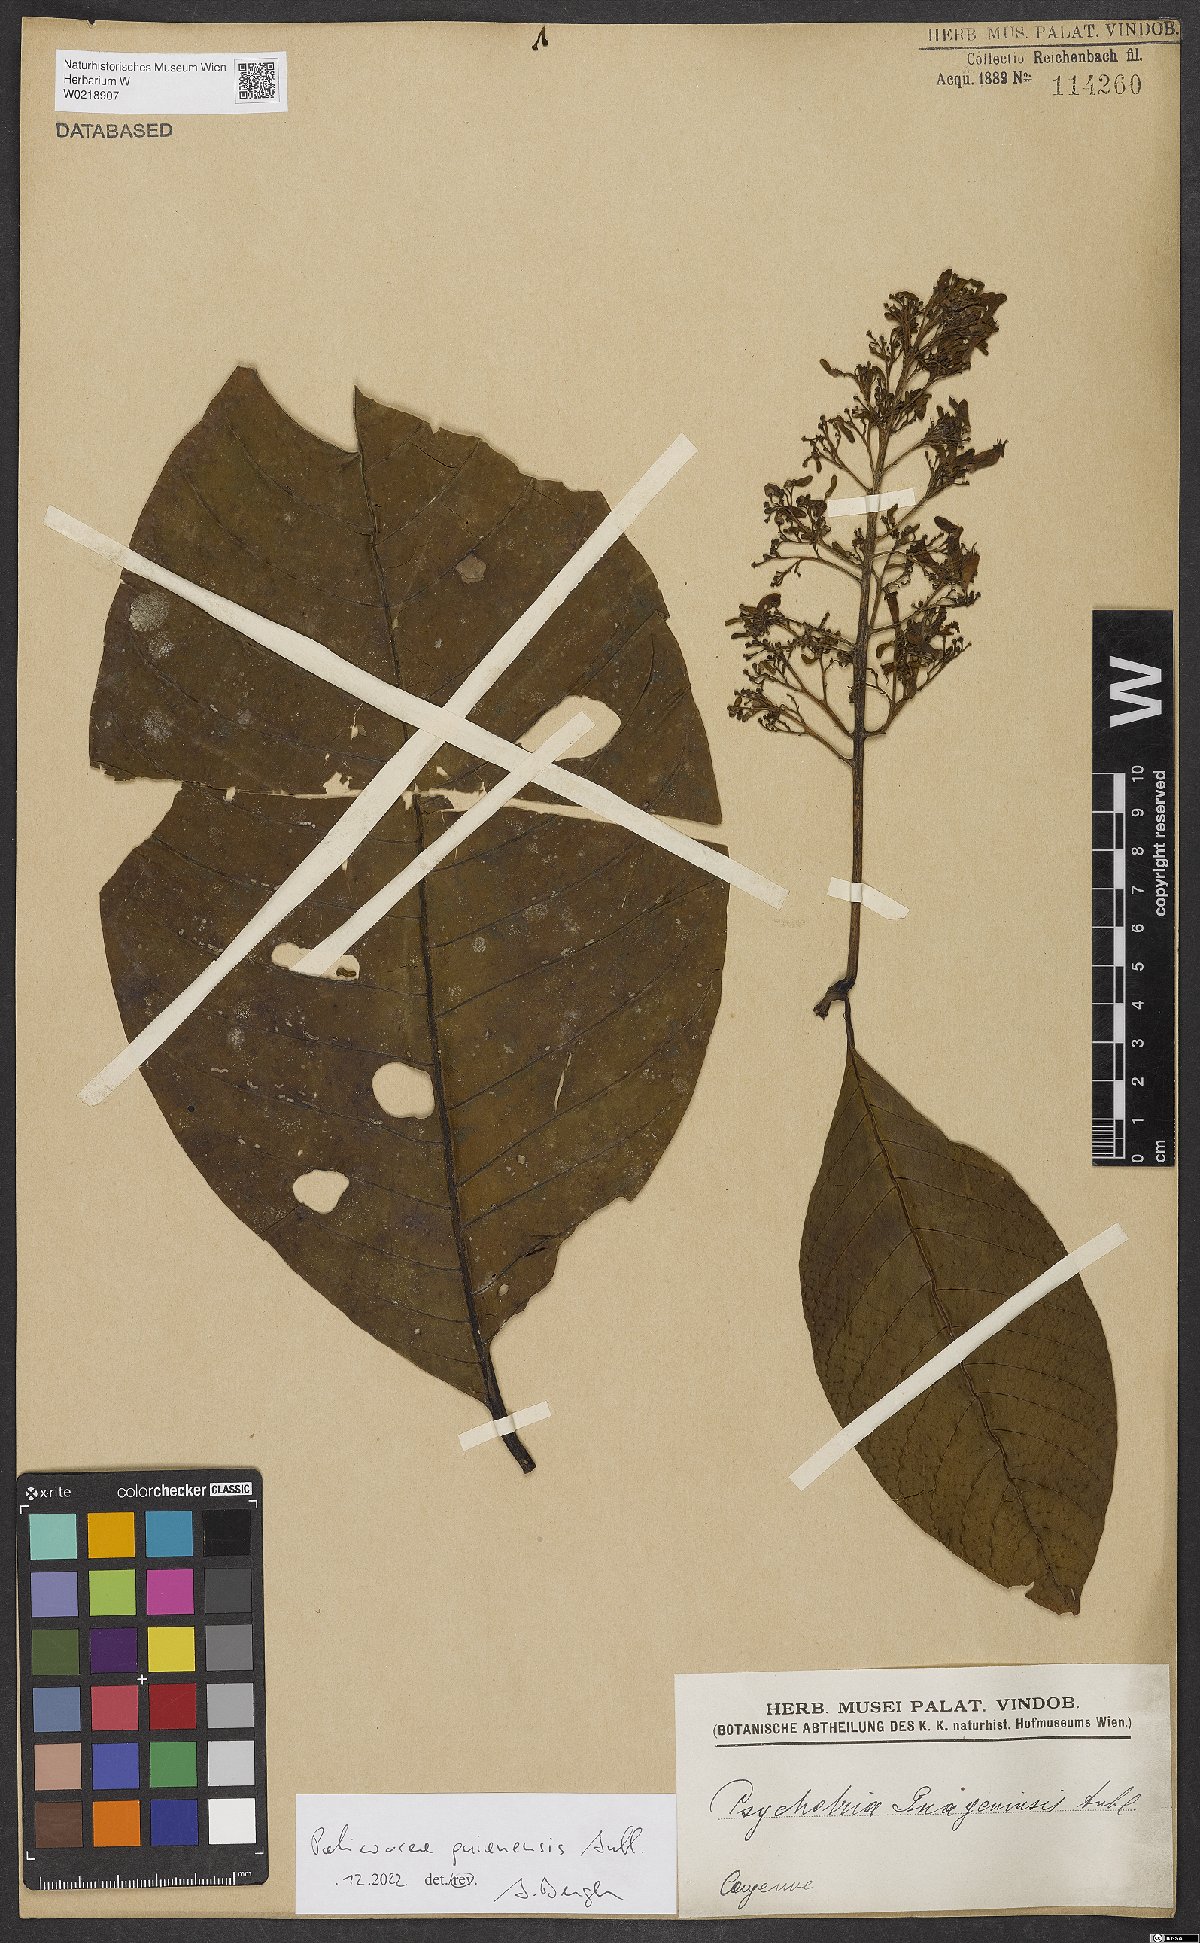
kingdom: Plantae
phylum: Tracheophyta
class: Magnoliopsida
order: Gentianales
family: Rubiaceae
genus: Palicourea
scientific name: Palicourea guianensis
